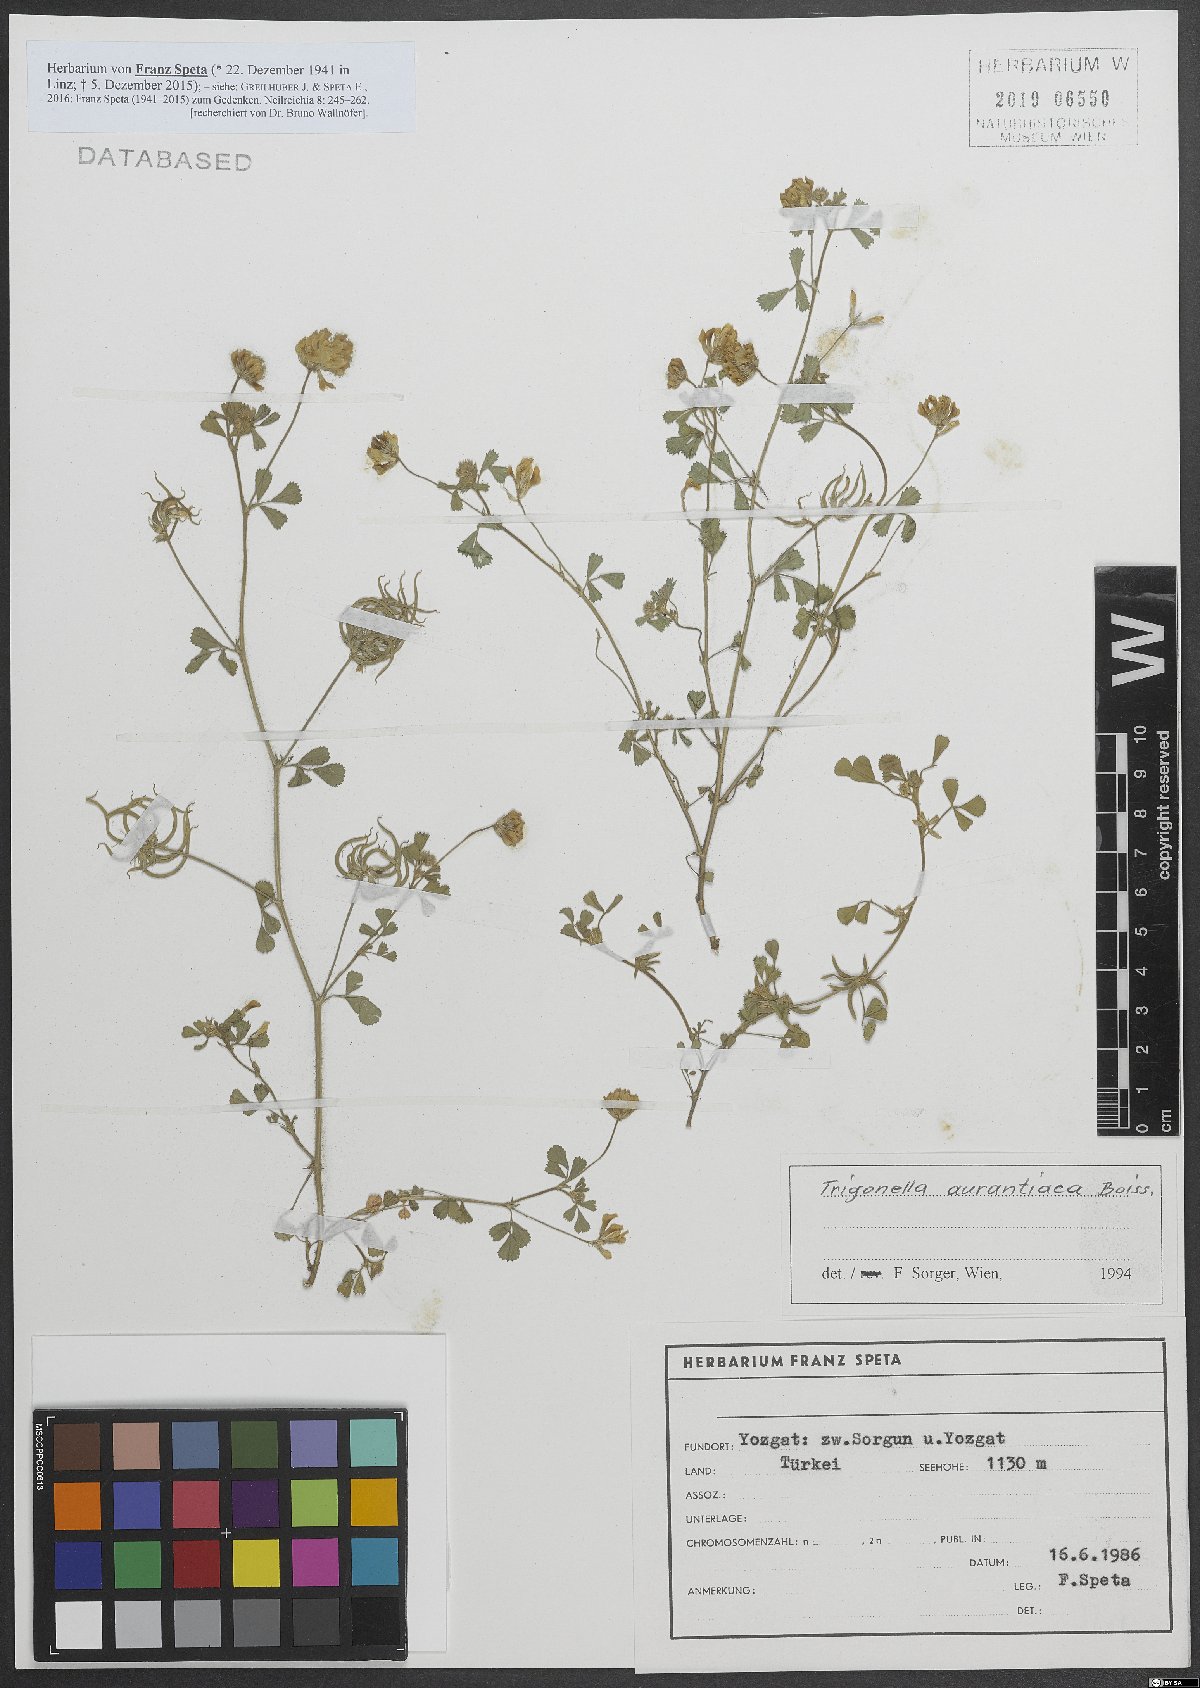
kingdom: Plantae
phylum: Tracheophyta
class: Magnoliopsida
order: Fabales
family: Fabaceae
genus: Medicago
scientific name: Medicago phrygia
